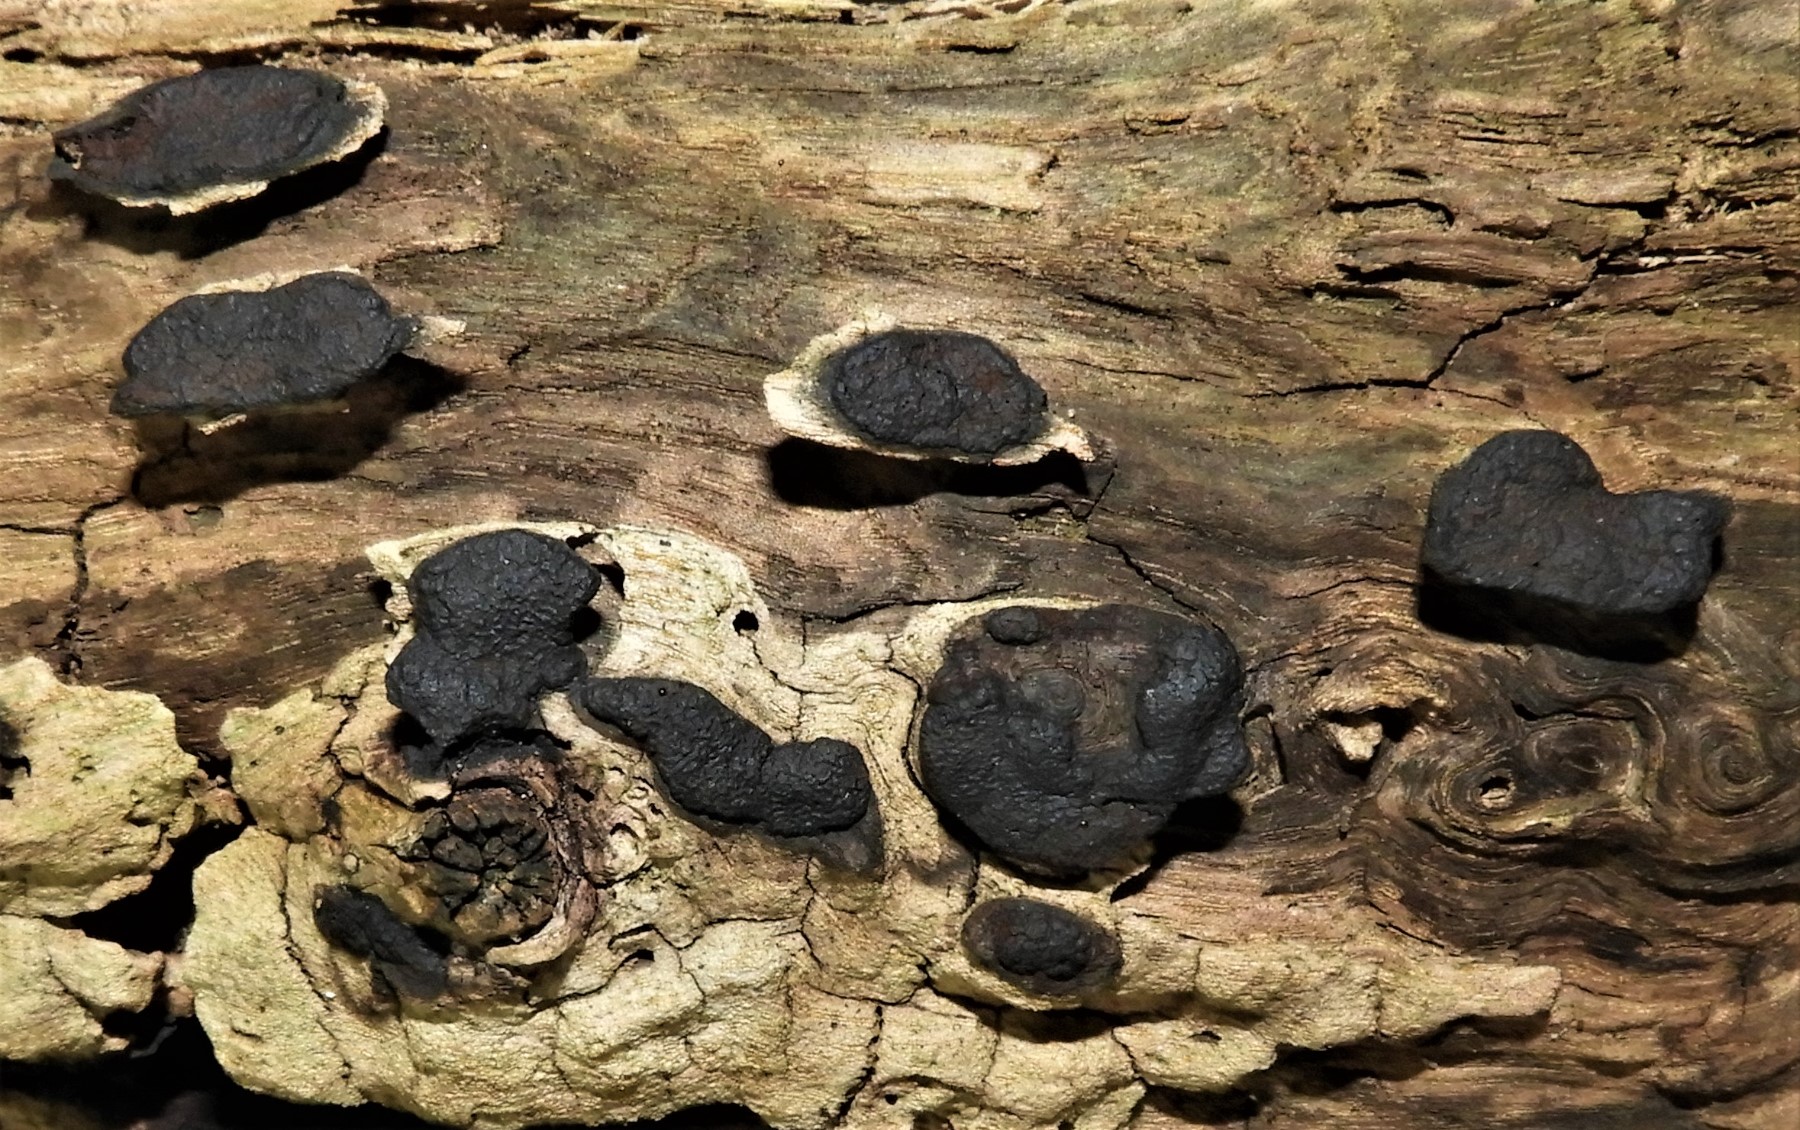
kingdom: Fungi
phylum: Ascomycota
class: Sordariomycetes
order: Xylariales
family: Xylariaceae
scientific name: Xylariaceae
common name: stødsvampfamilien
